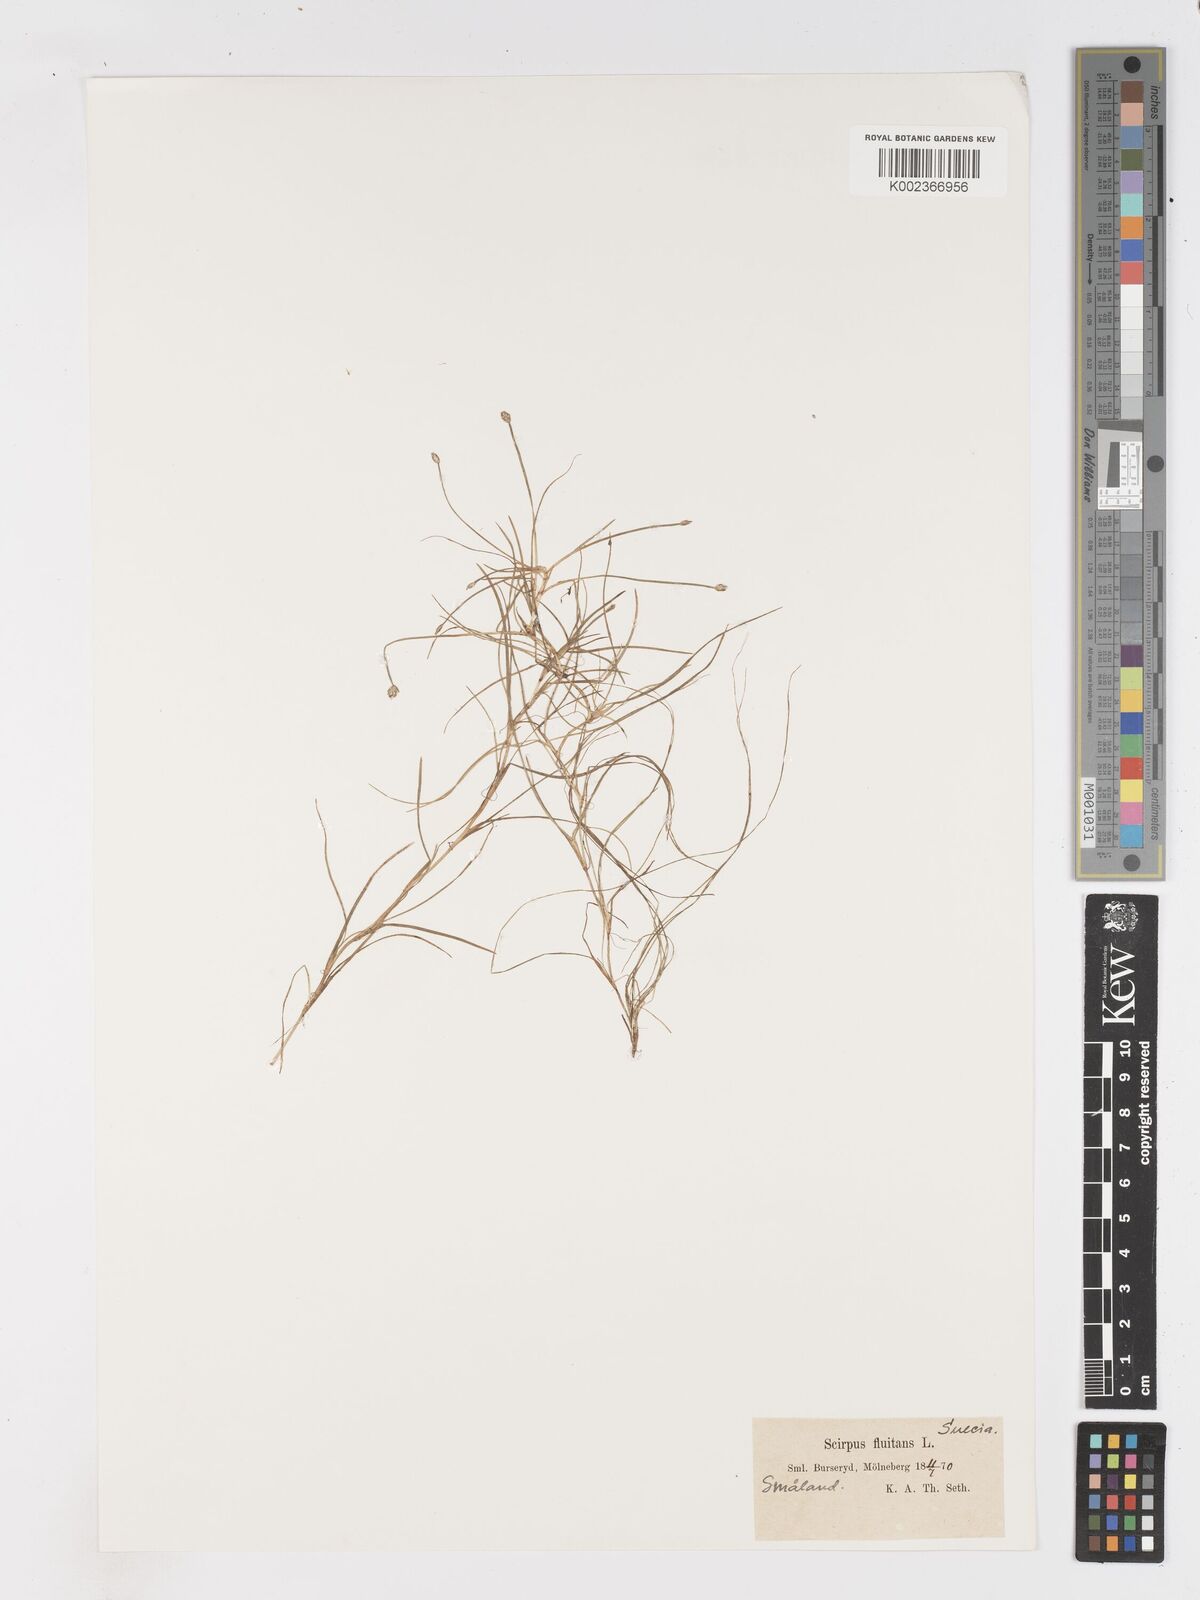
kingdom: Plantae
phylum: Tracheophyta
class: Liliopsida
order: Poales
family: Cyperaceae
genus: Isolepis
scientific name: Isolepis fluitans
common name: Floating club-rush
